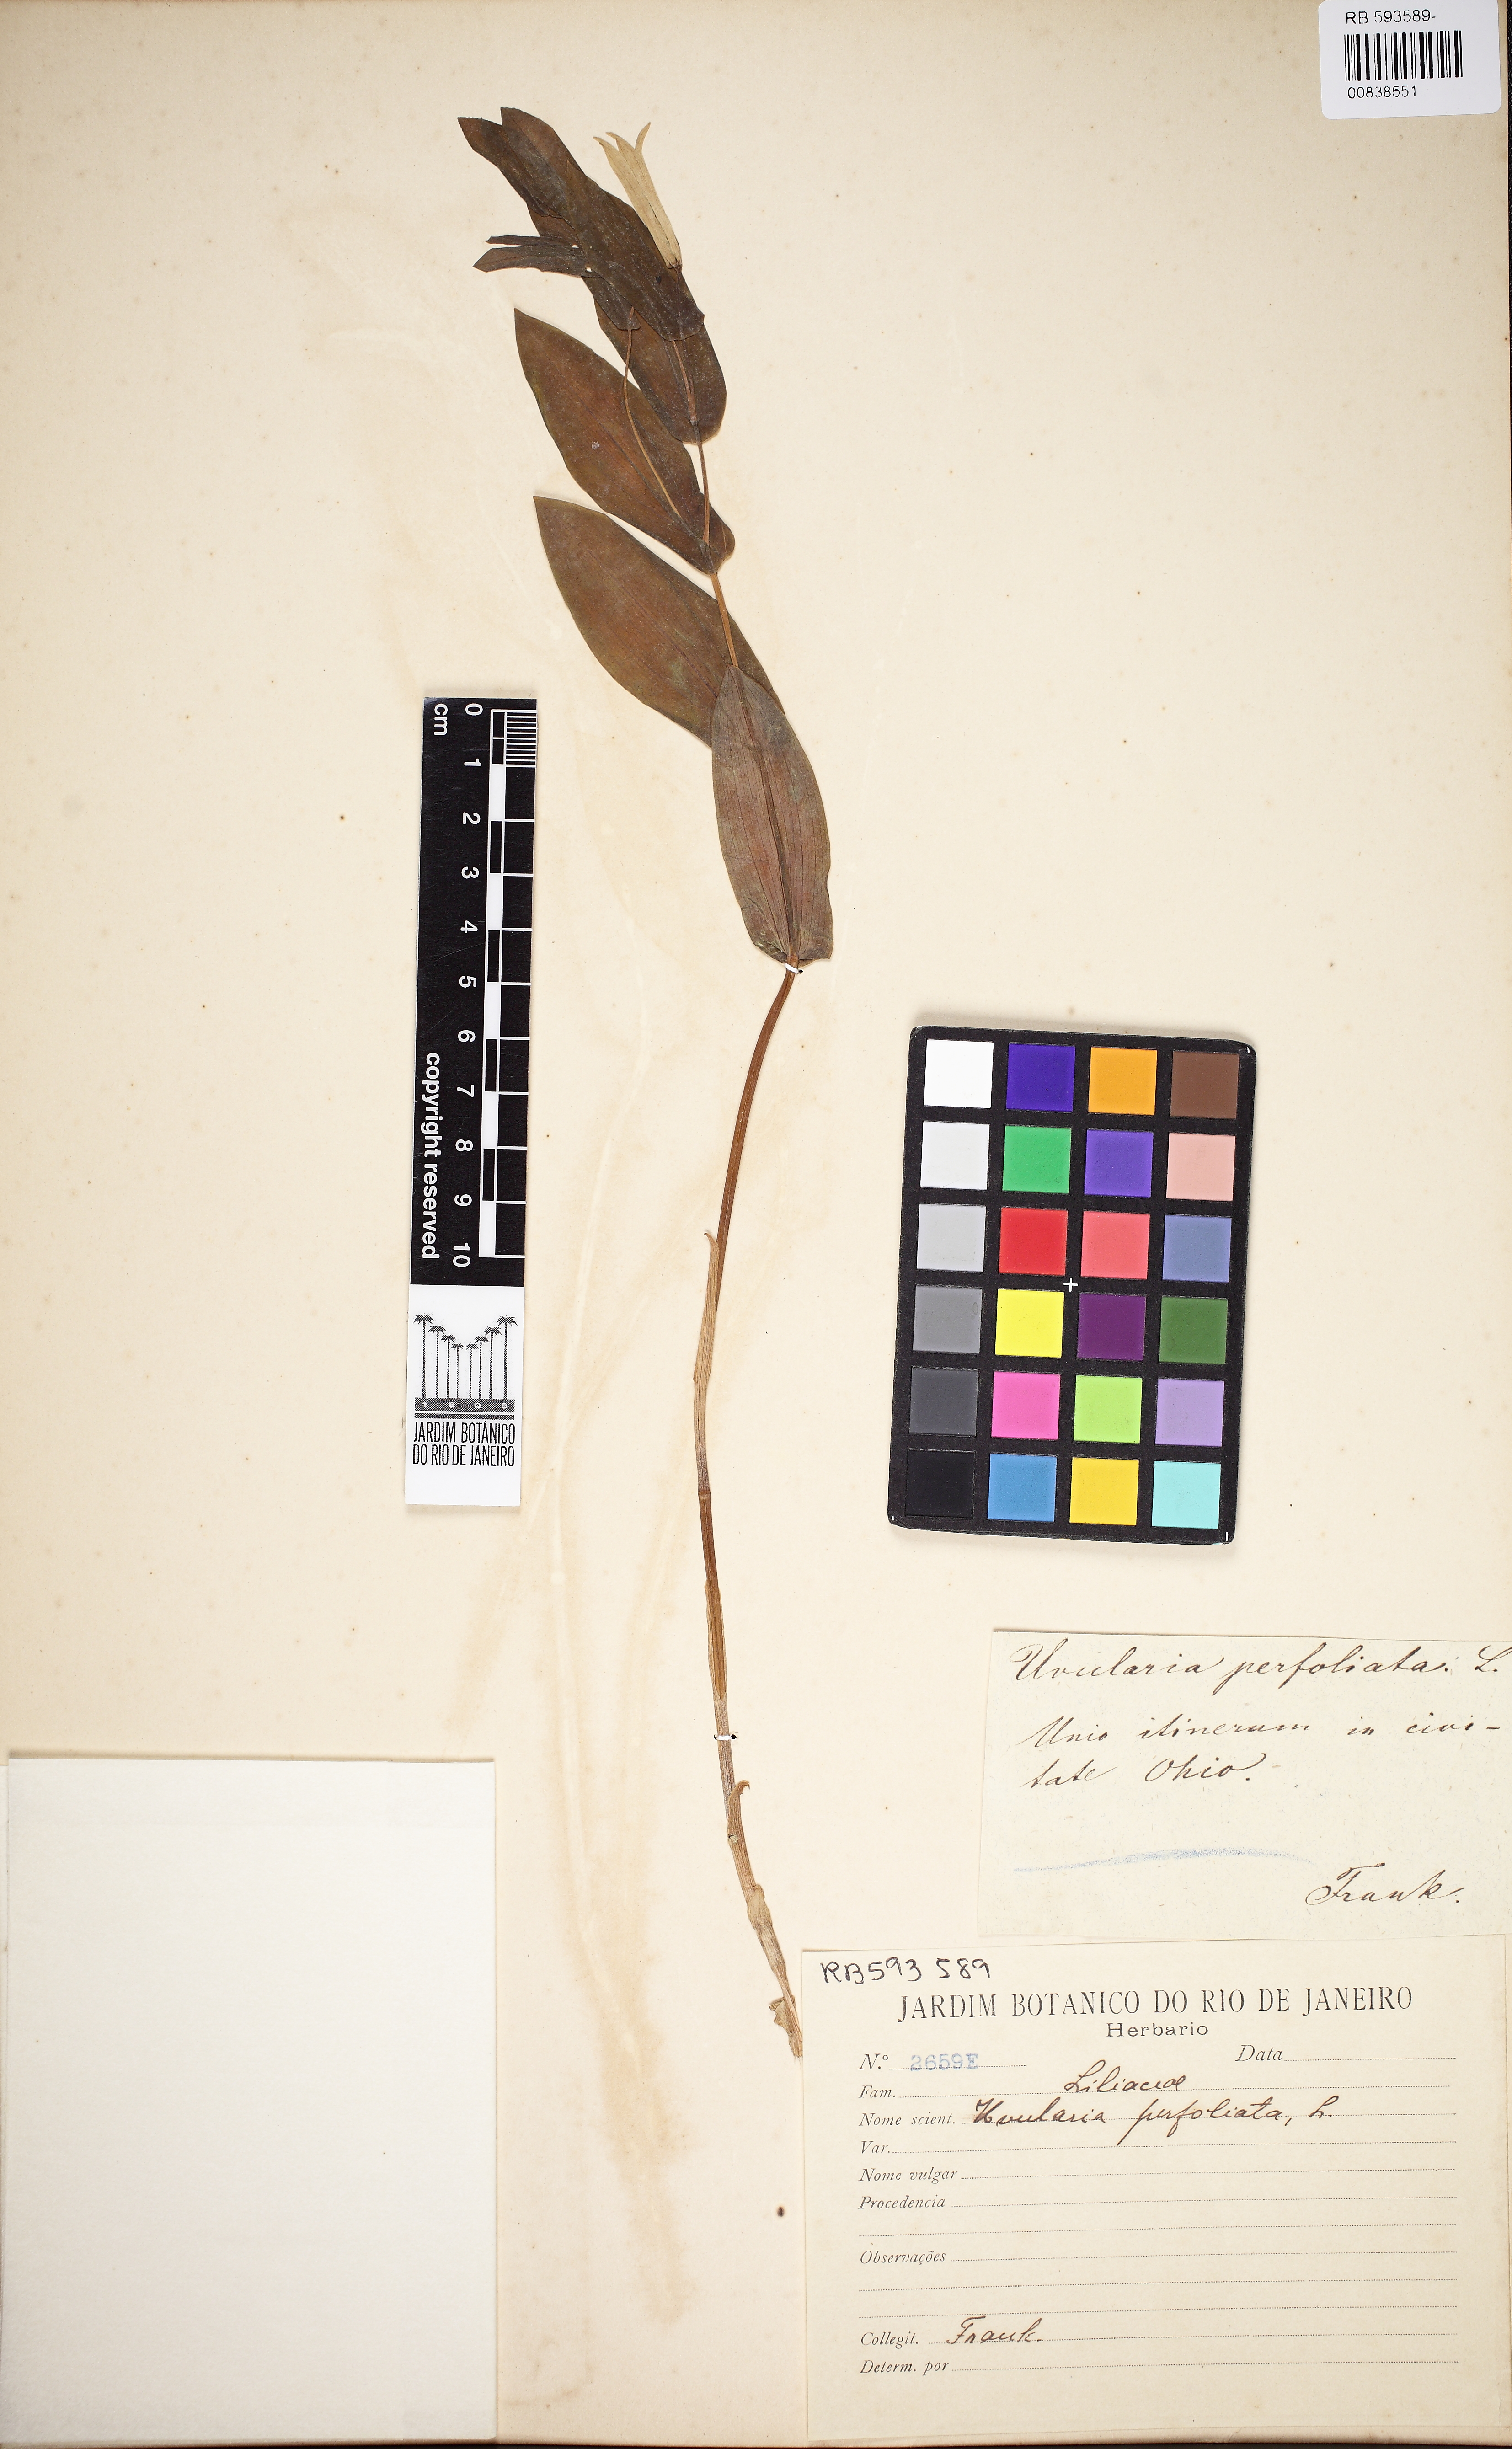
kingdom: Plantae
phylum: Tracheophyta
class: Liliopsida
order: Liliales
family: Colchicaceae
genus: Uvularia
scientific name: Uvularia perfoliata
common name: Perfoliate bellwort
